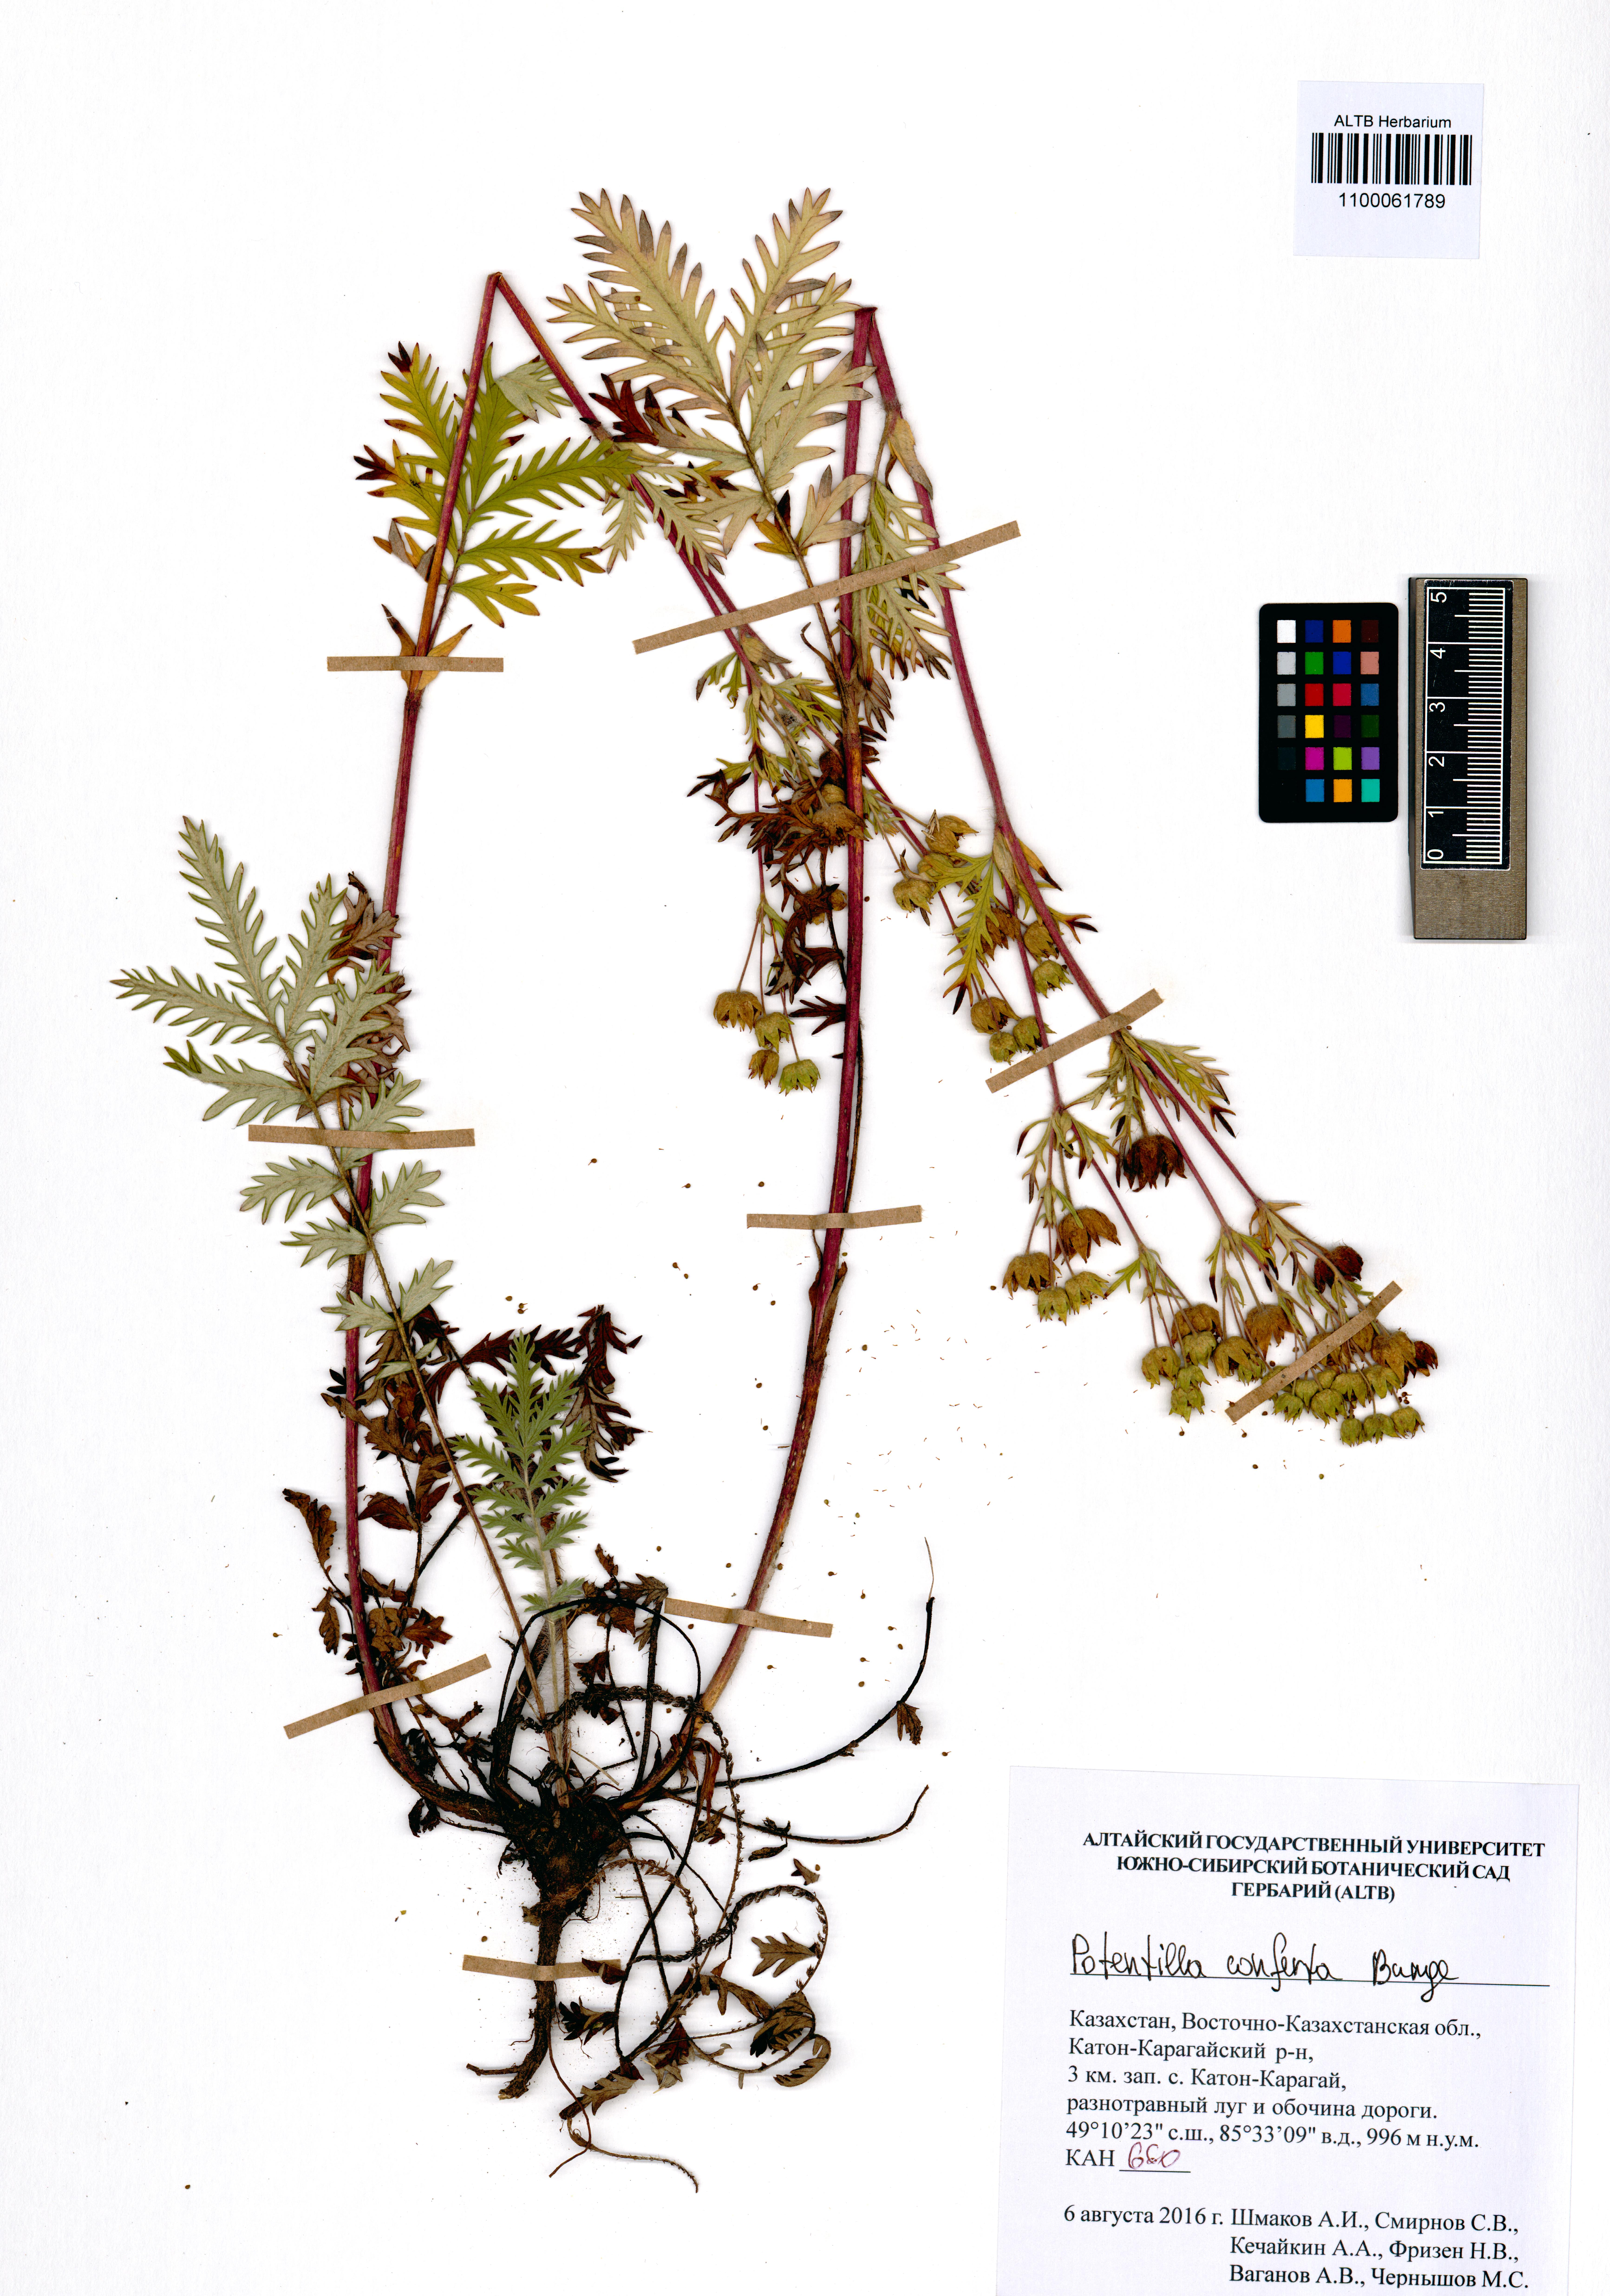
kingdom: Plantae
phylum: Tracheophyta
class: Magnoliopsida
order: Rosales
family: Rosaceae
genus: Potentilla
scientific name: Potentilla conferta
